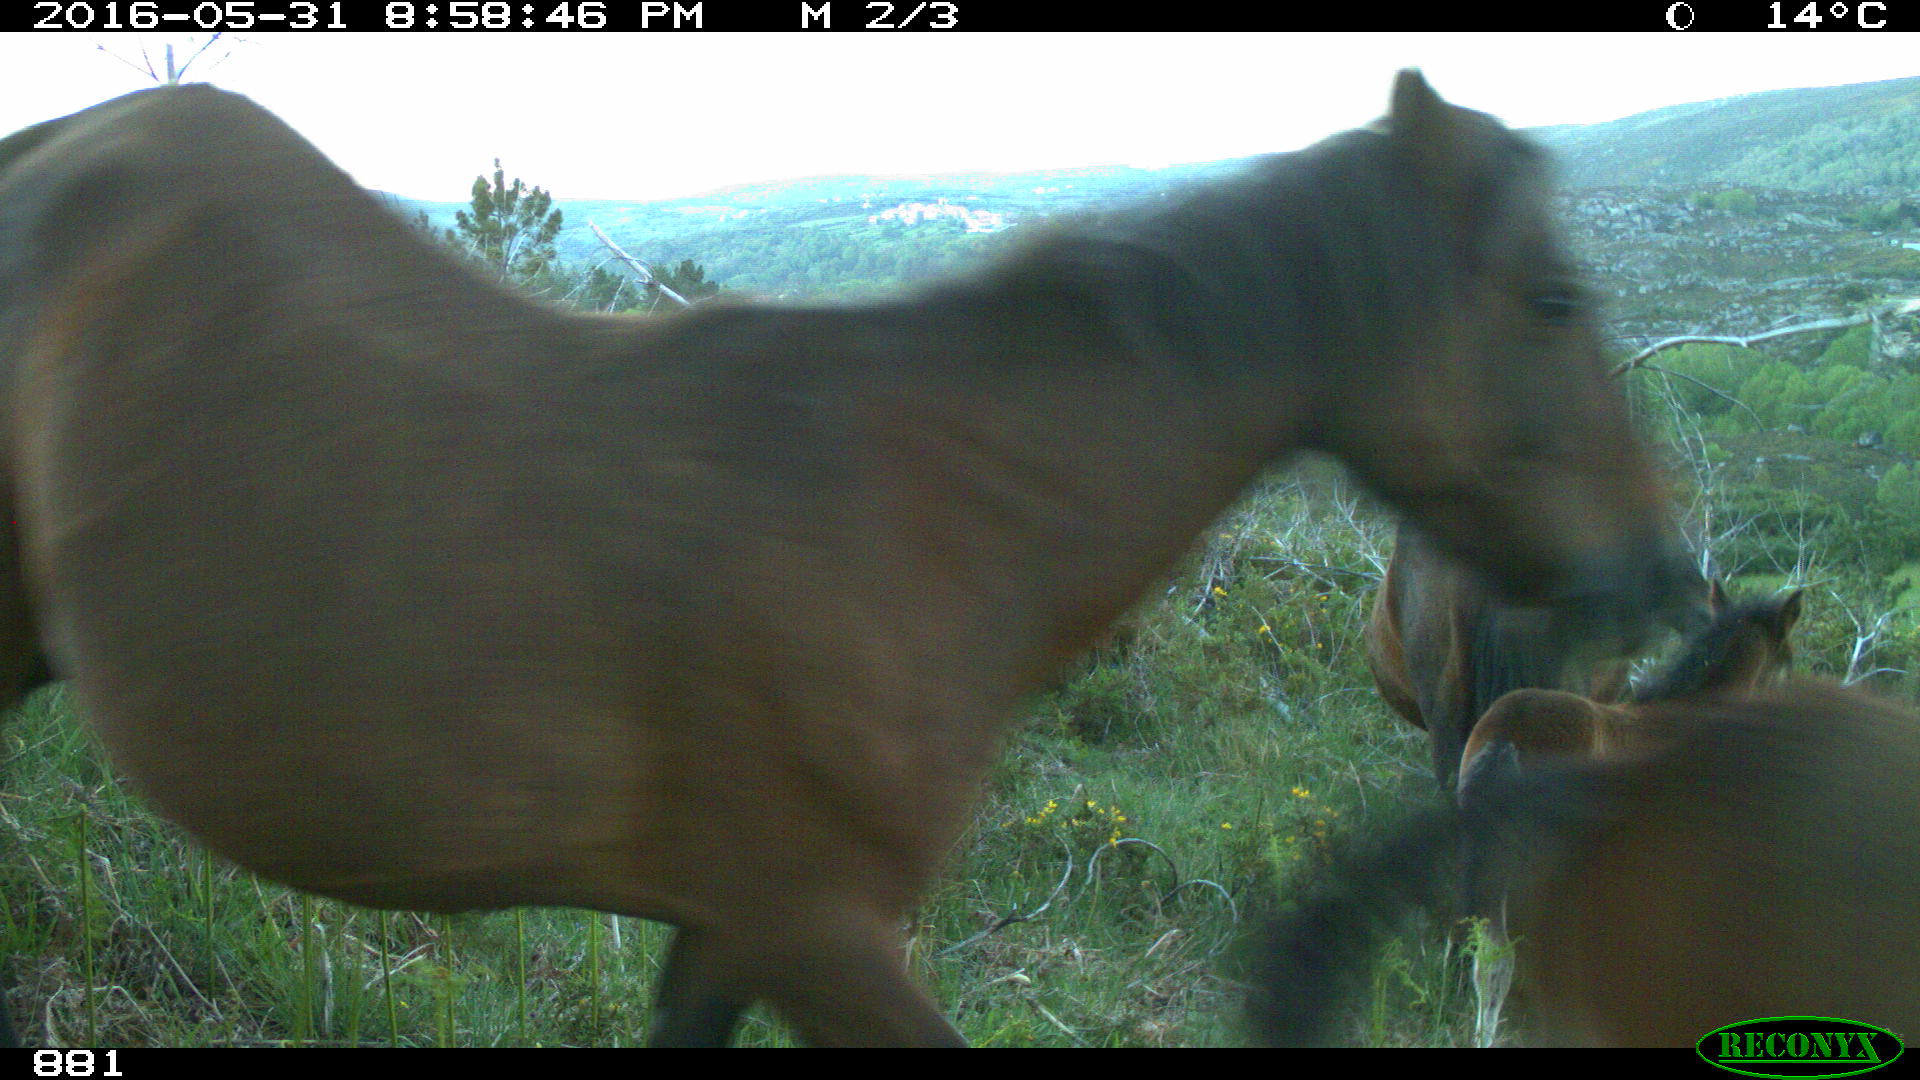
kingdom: Animalia
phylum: Chordata
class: Mammalia
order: Perissodactyla
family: Equidae
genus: Equus
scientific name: Equus caballus
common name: Horse
